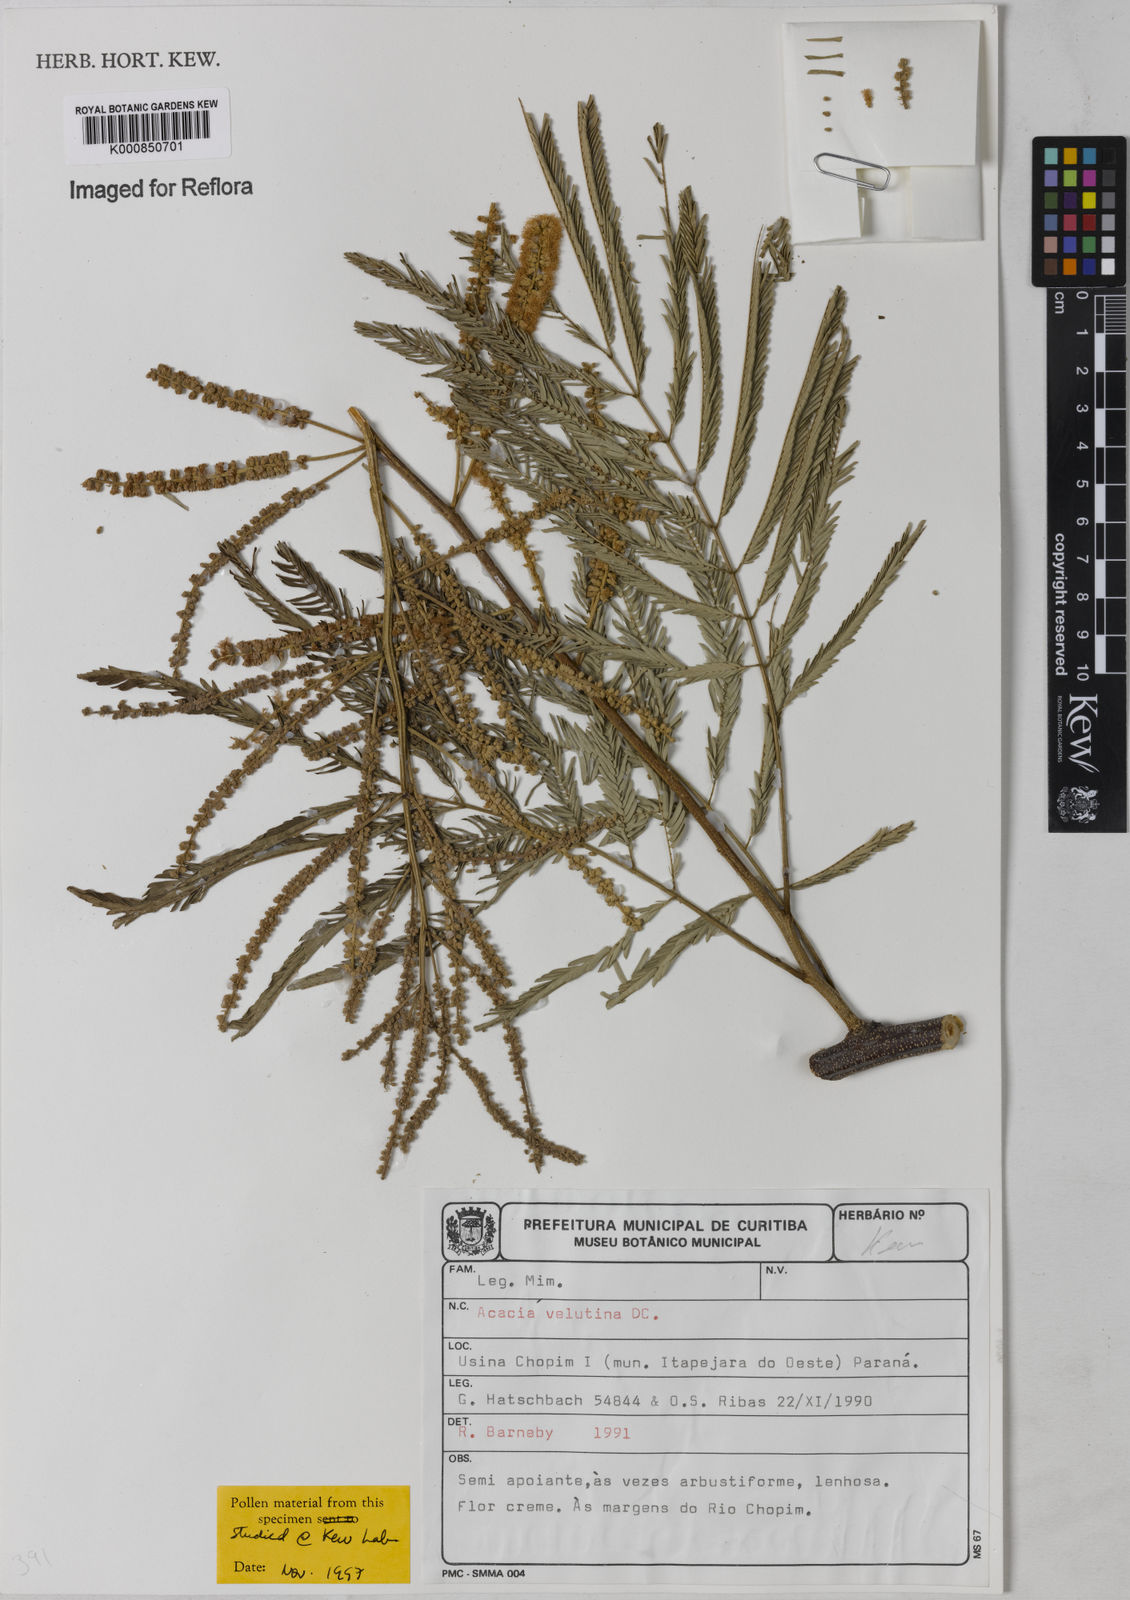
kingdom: Plantae
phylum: Tracheophyta
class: Magnoliopsida
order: Fabales
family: Fabaceae
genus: Senegalia
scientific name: Senegalia velutina
